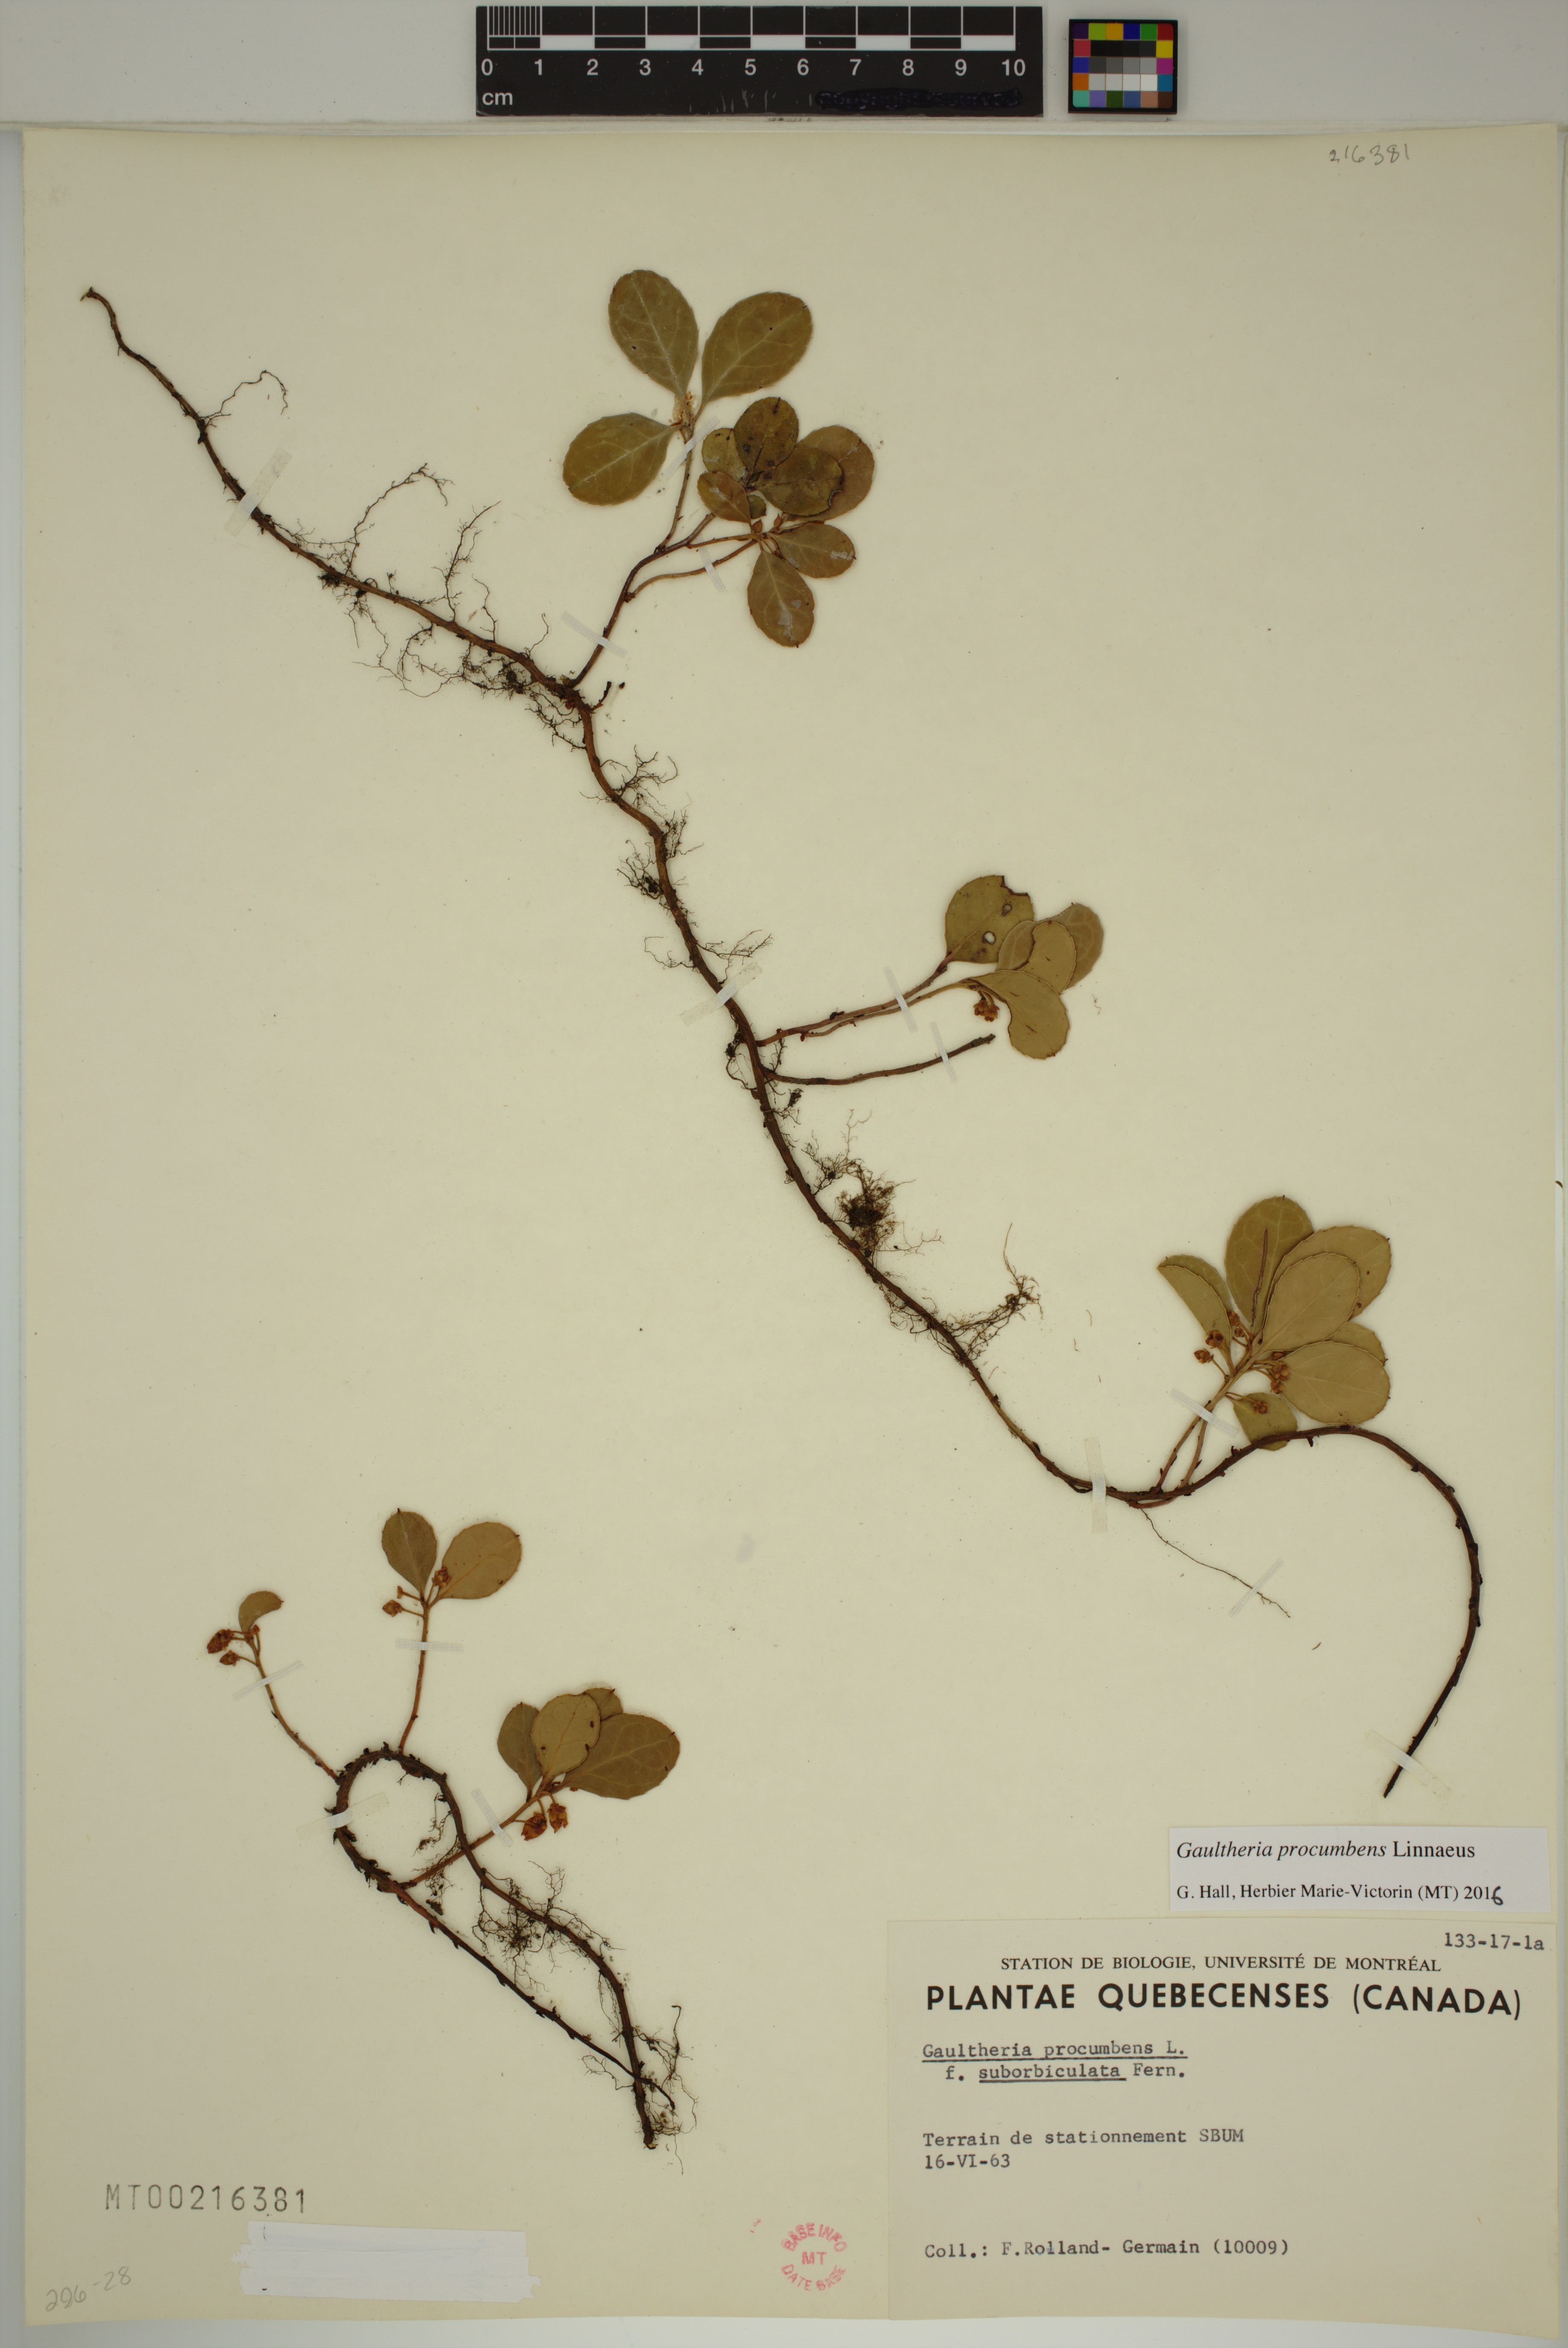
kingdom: Plantae
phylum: Tracheophyta
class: Magnoliopsida
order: Ericales
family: Ericaceae
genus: Gaultheria
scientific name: Gaultheria procumbens
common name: Checkerberry
